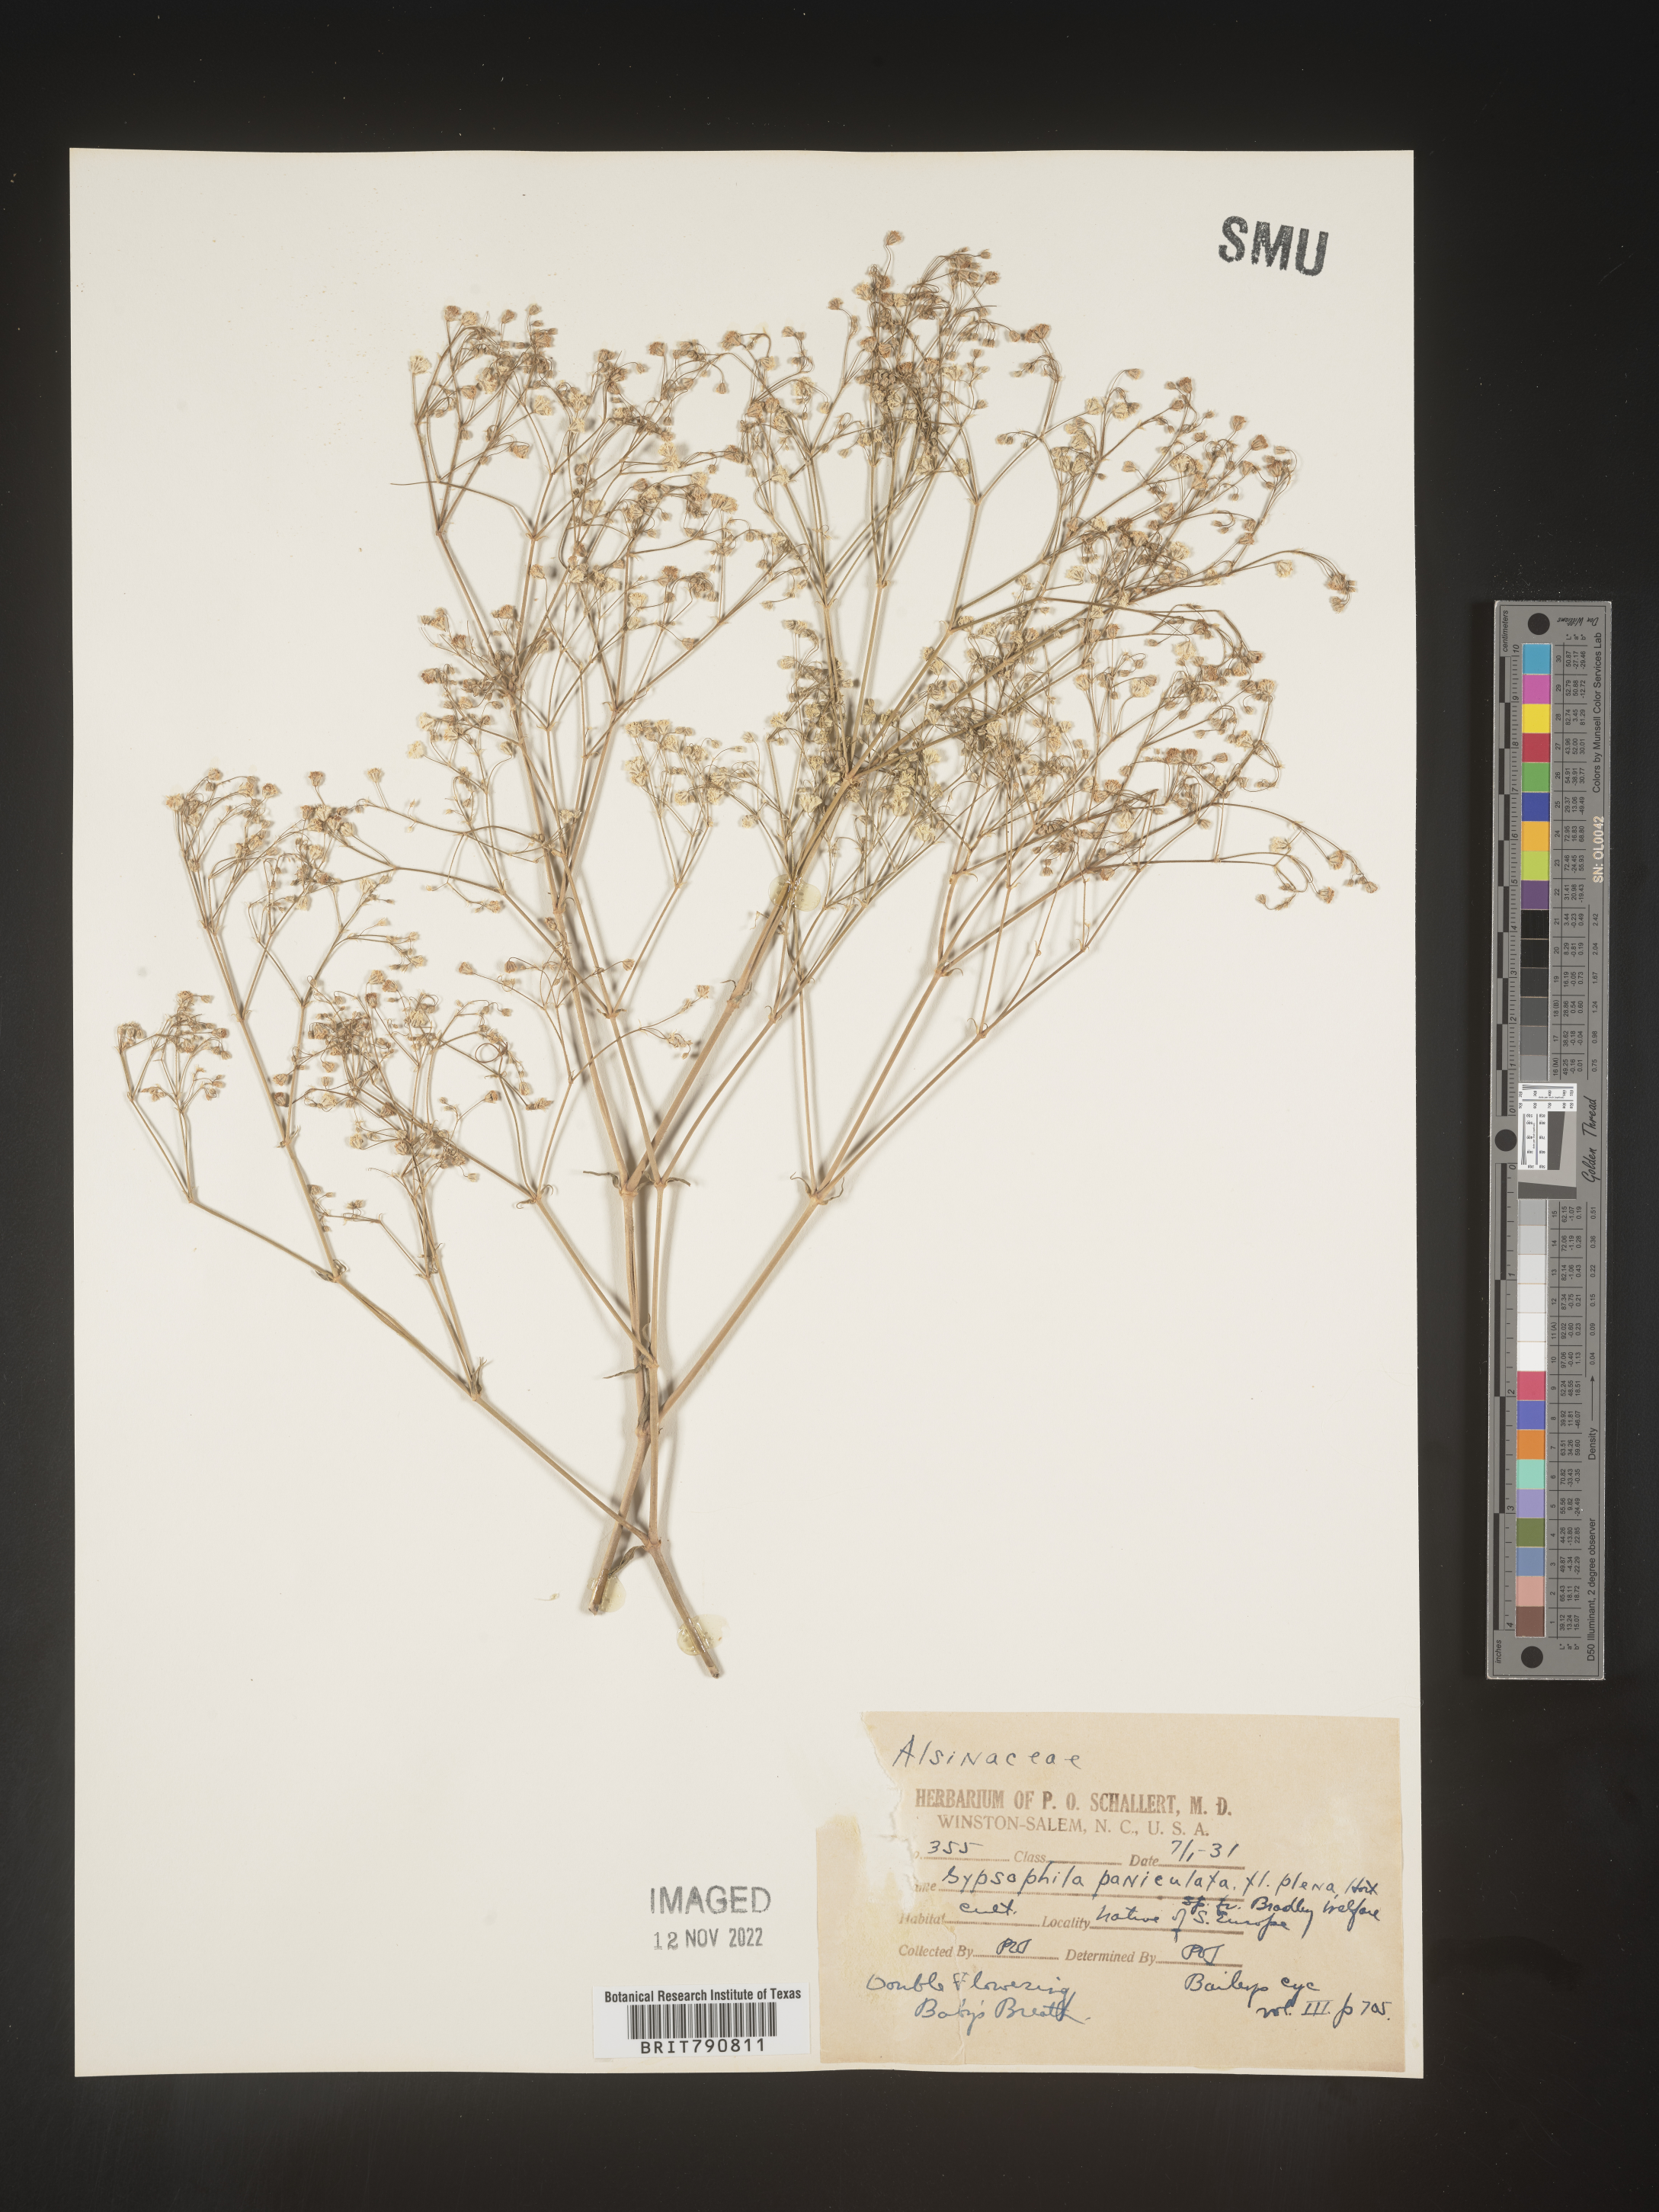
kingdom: Plantae
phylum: Tracheophyta
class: Magnoliopsida
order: Caryophyllales
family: Caryophyllaceae
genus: Gypsophila
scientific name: Gypsophila
